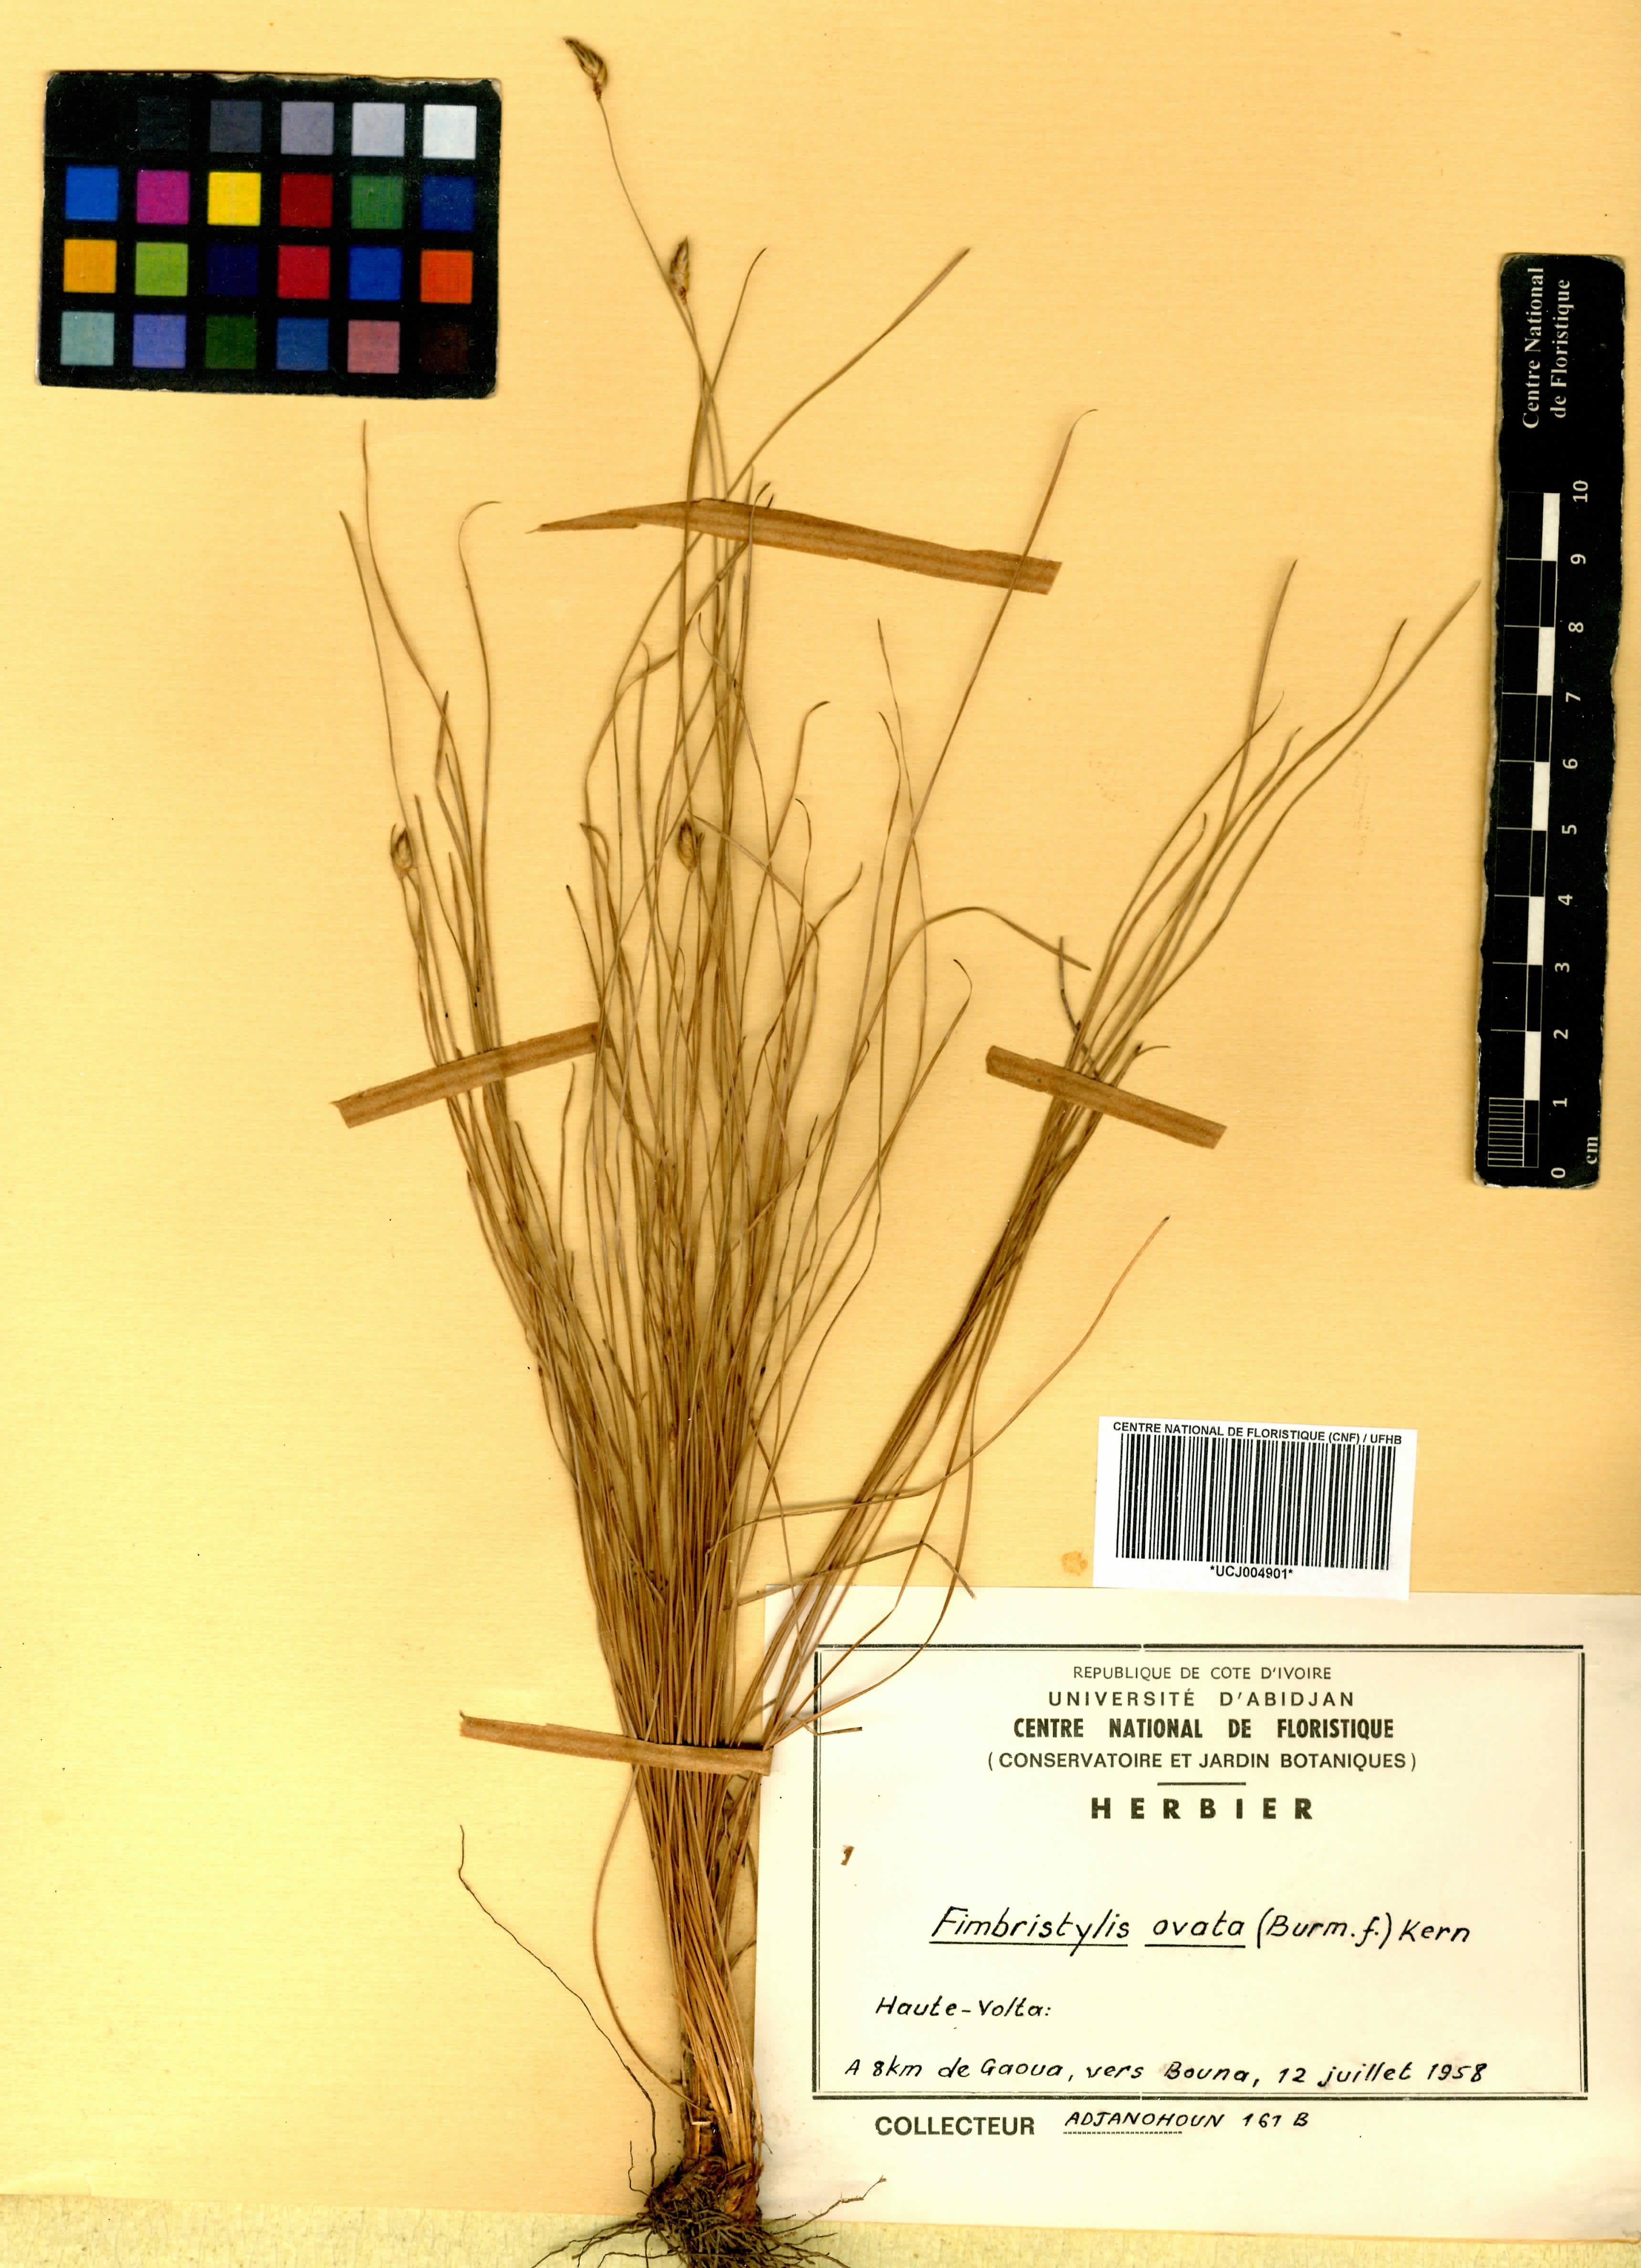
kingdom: Plantae
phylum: Tracheophyta
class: Liliopsida
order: Poales
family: Cyperaceae
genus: Abildgaardia
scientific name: Abildgaardia ovata
